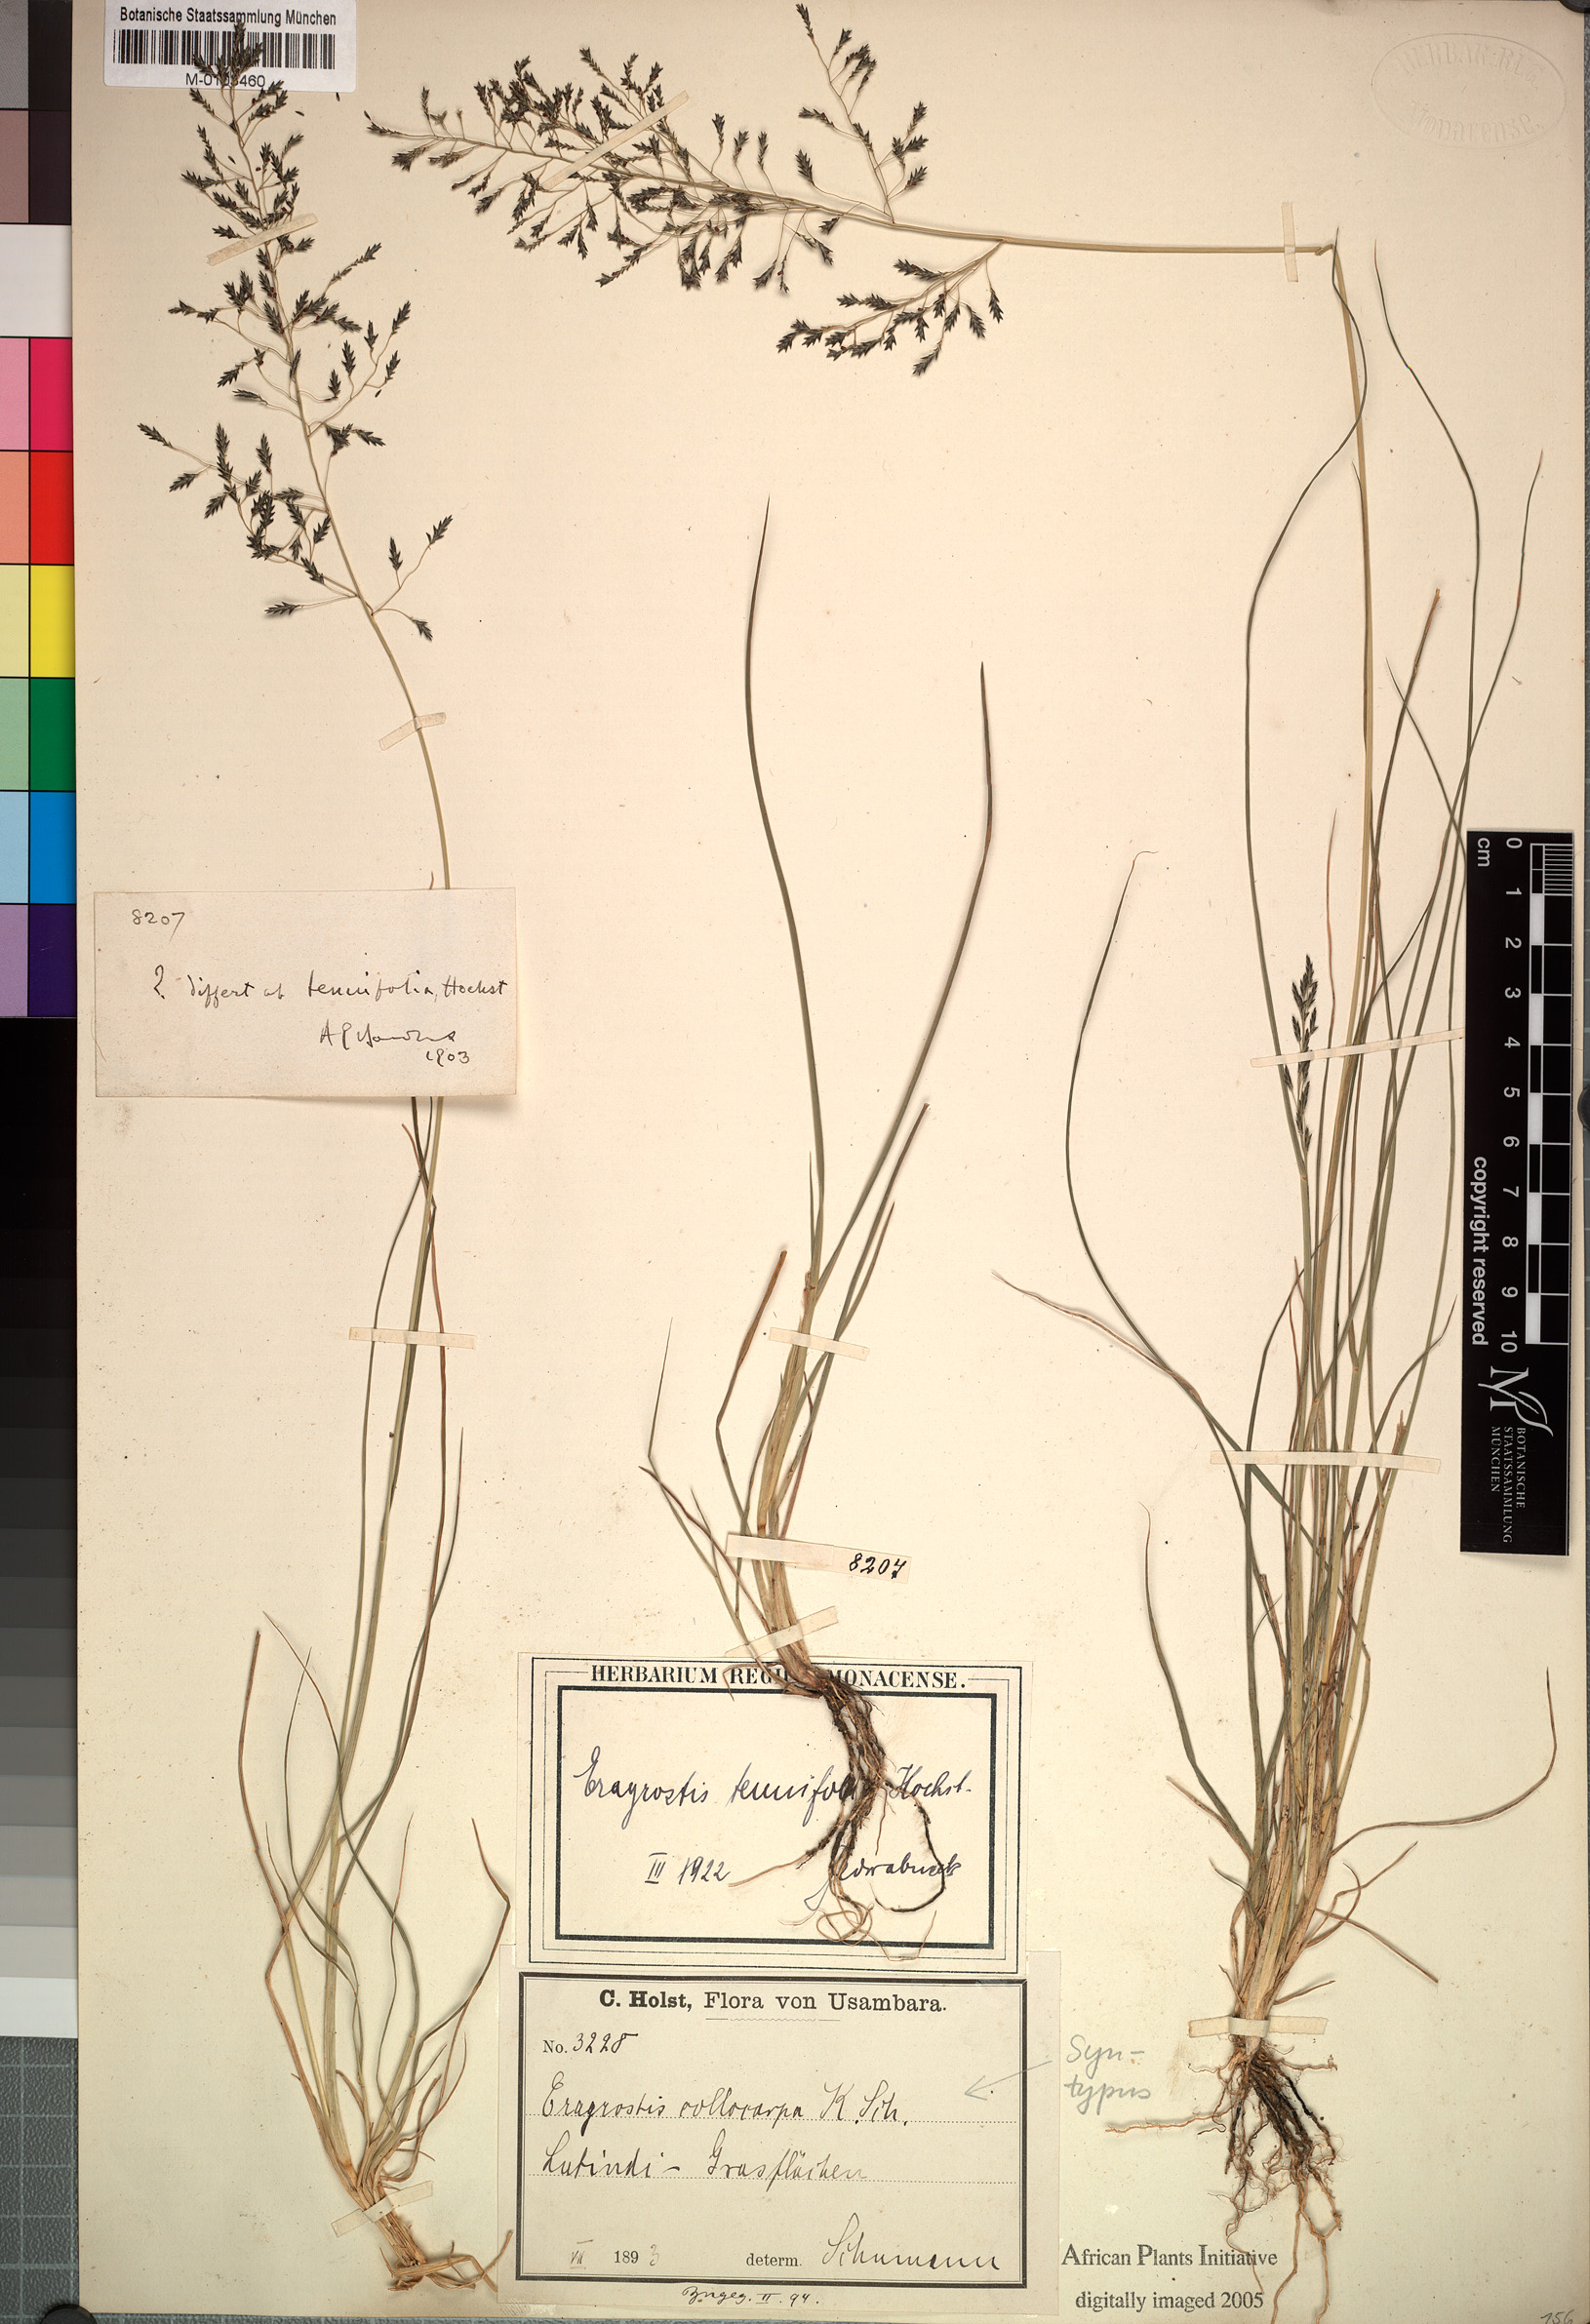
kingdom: Plantae
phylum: Tracheophyta
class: Liliopsida
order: Poales
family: Poaceae
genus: Eragrostis
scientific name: Eragrostis tenuifolia
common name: Elastic grass
